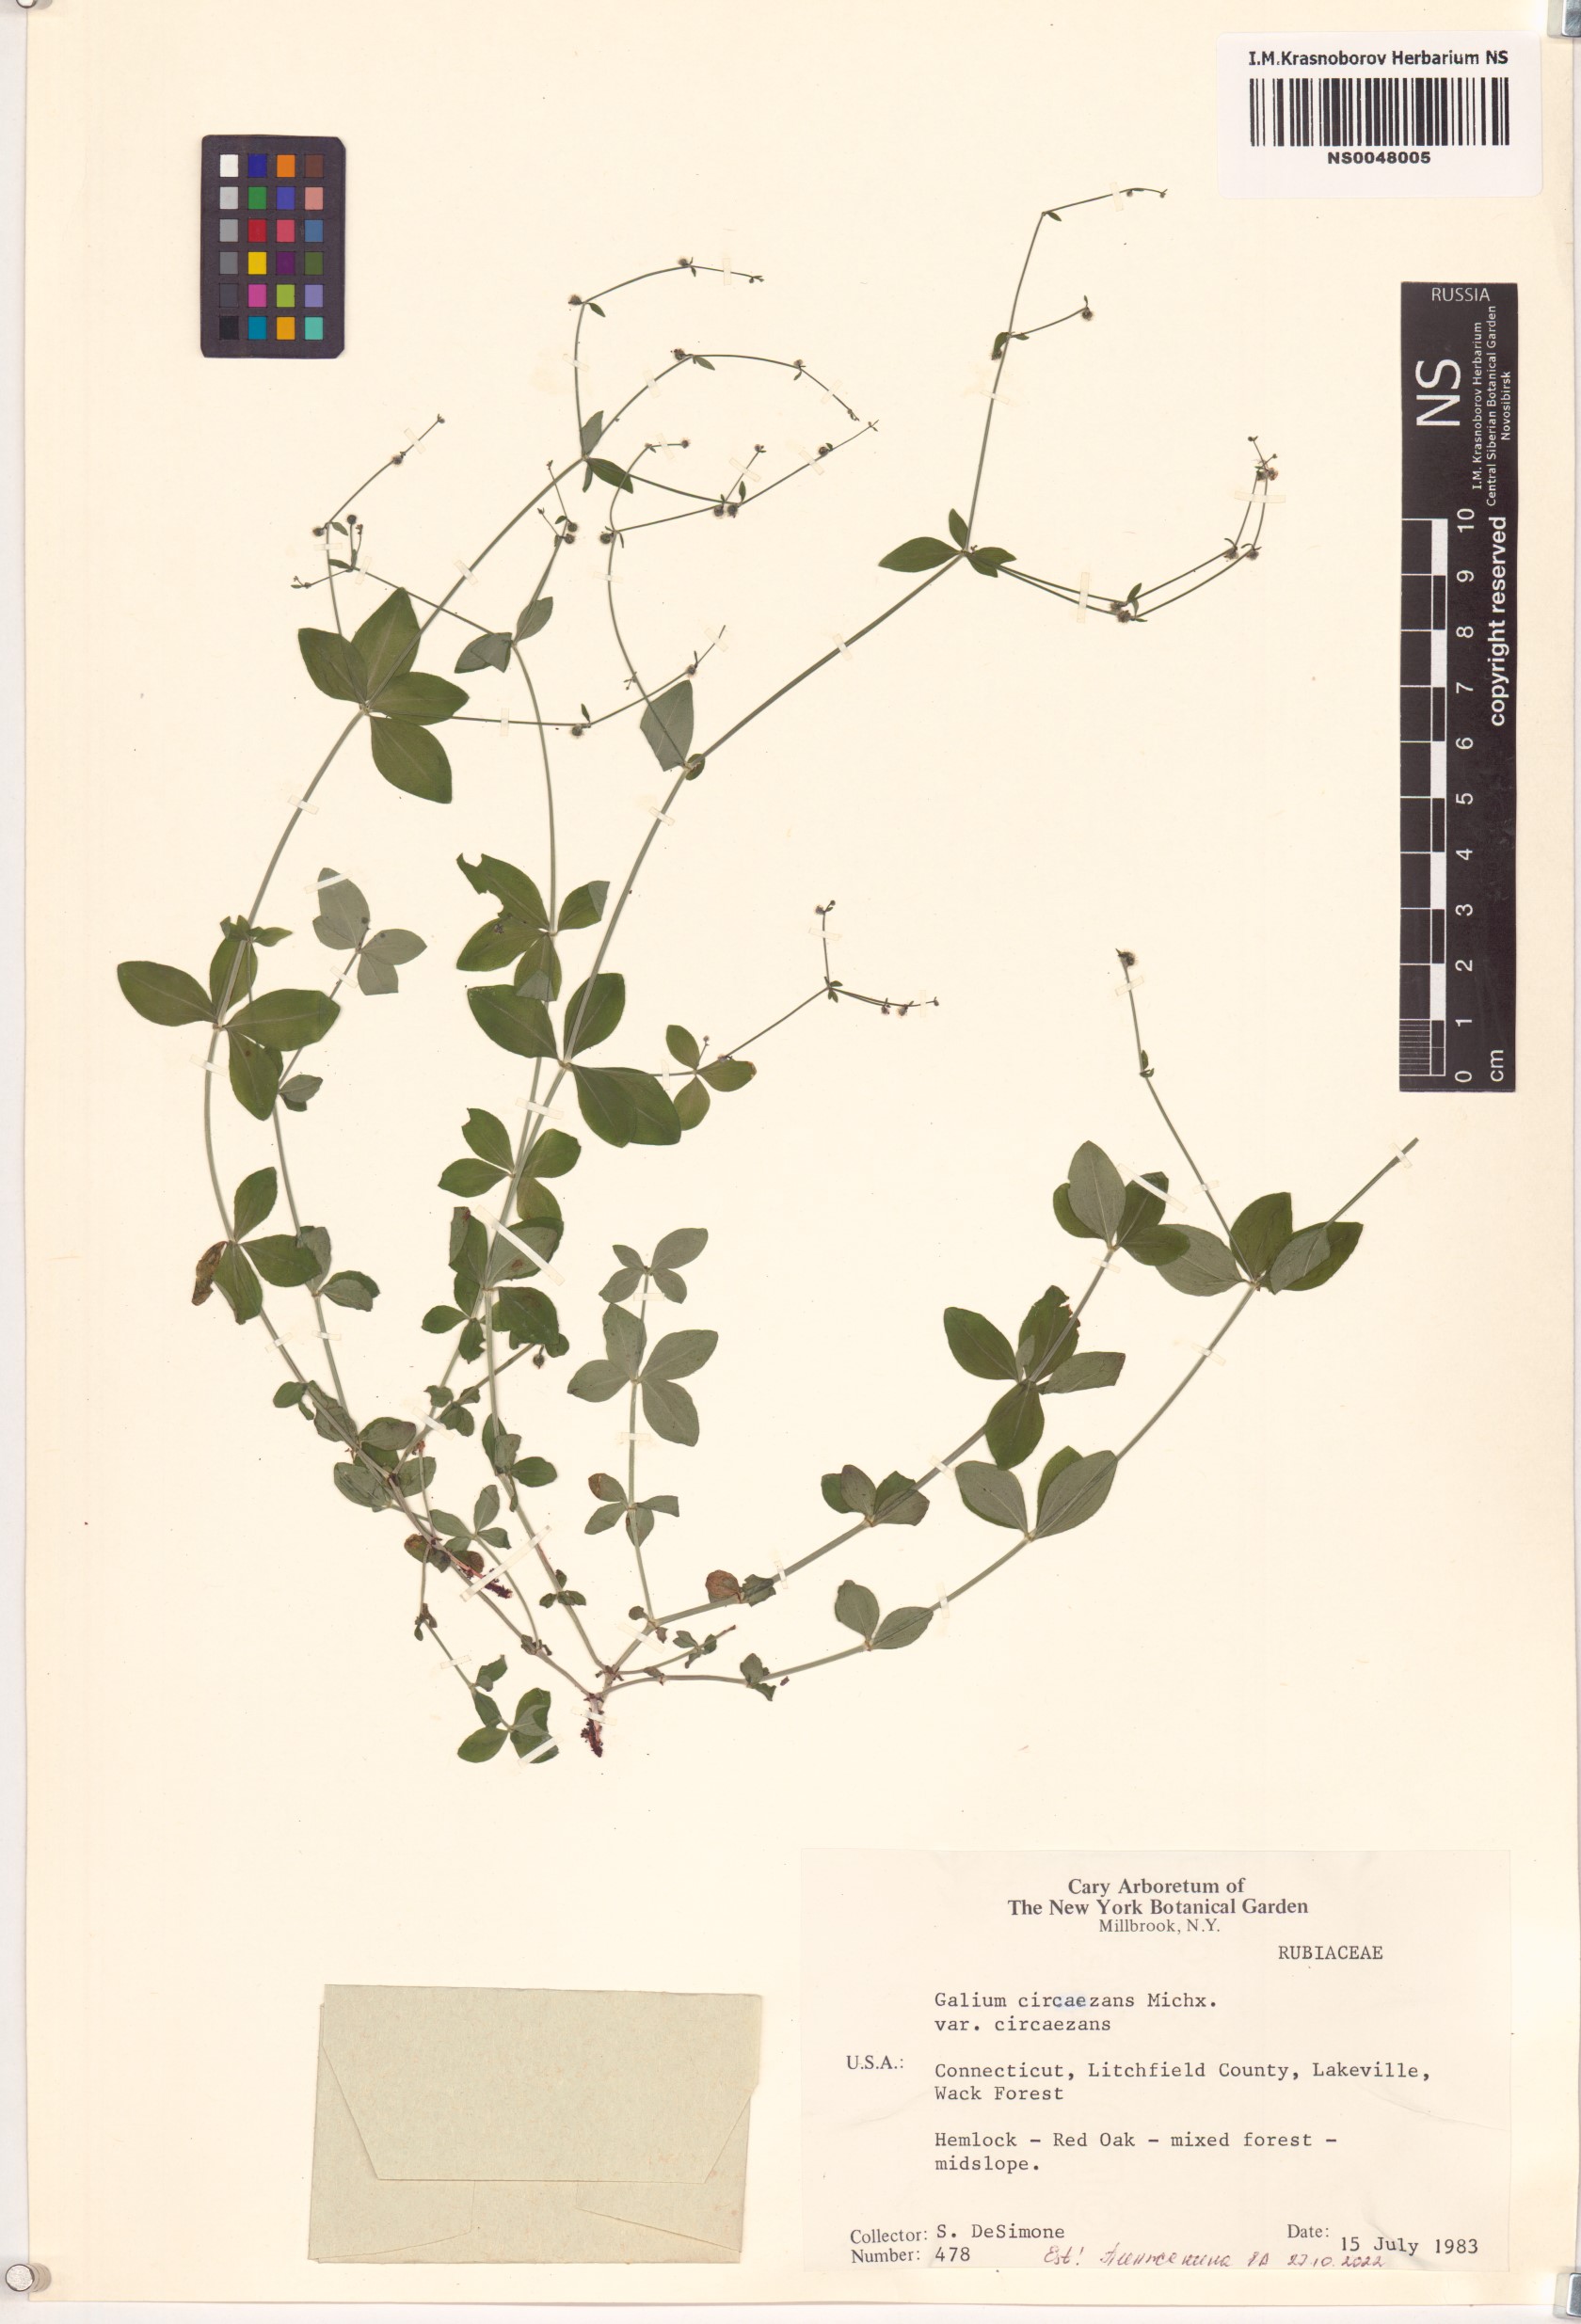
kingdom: Plantae
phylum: Tracheophyta
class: Magnoliopsida
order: Gentianales
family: Rubiaceae
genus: Galium
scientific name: Galium circaezans
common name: Forest bedstraw
